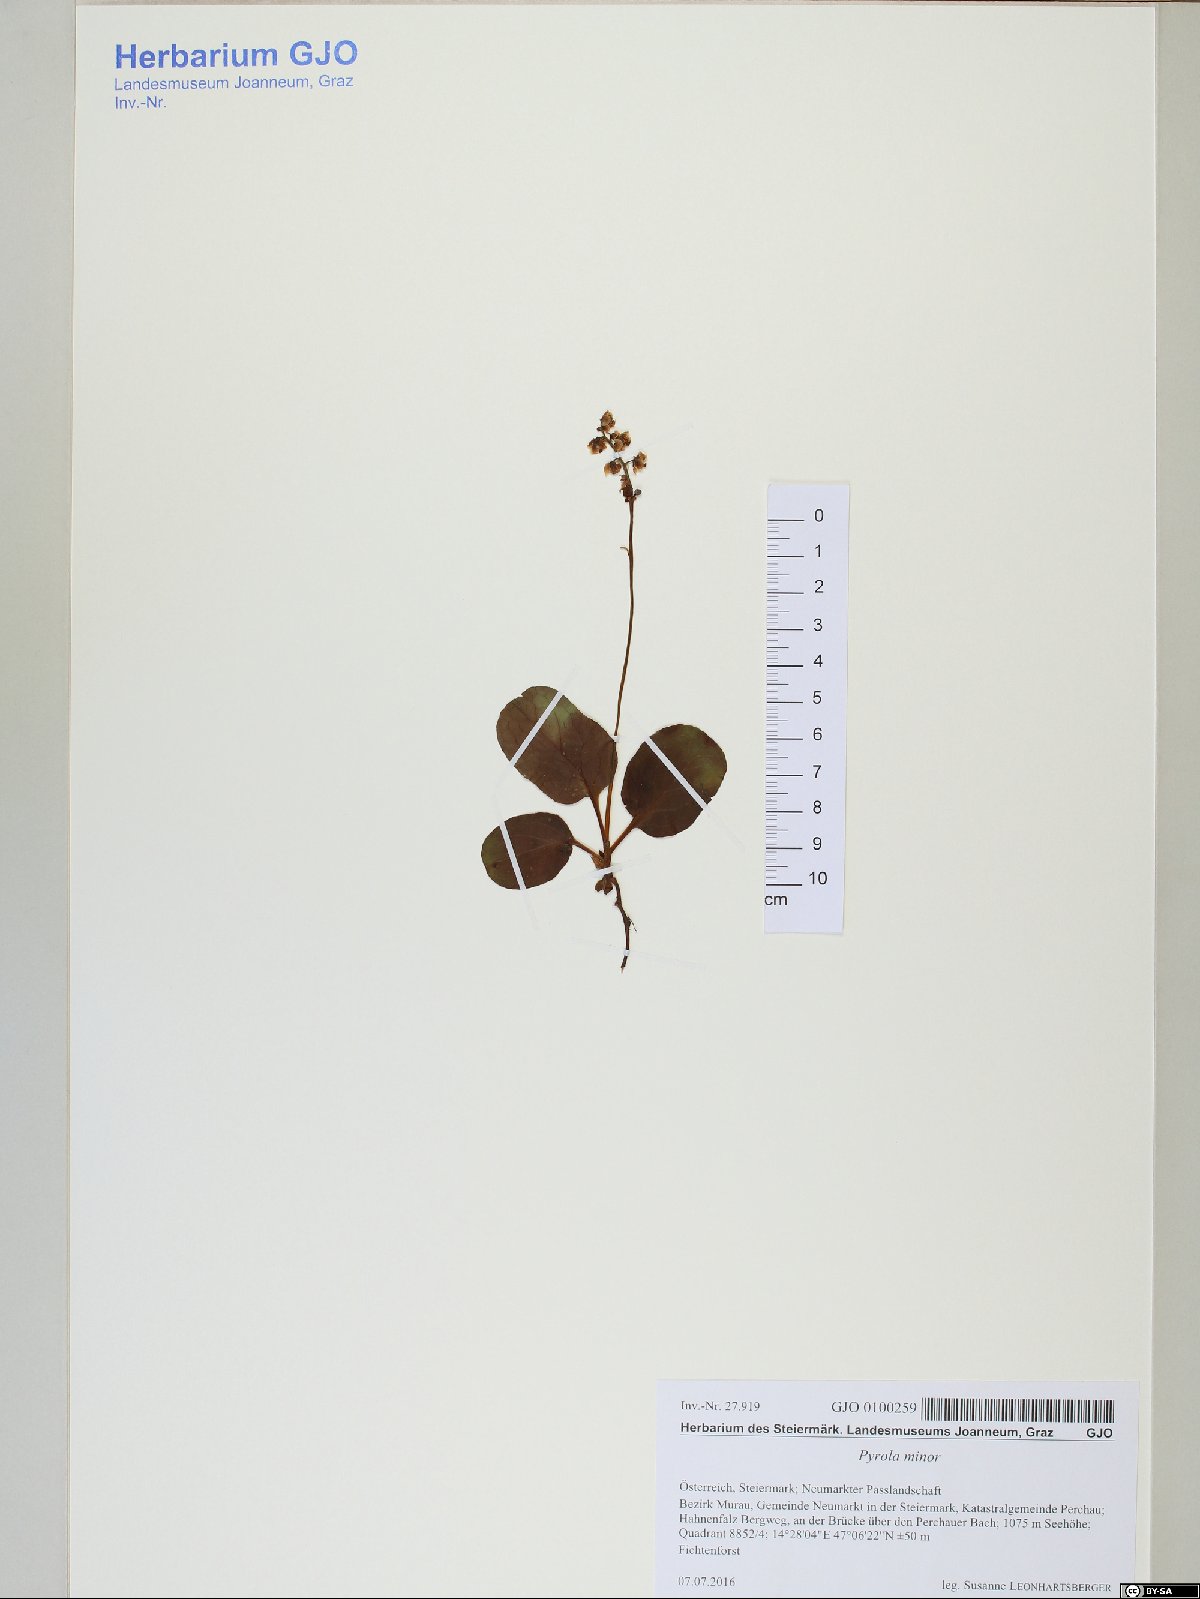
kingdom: Plantae
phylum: Tracheophyta
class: Magnoliopsida
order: Ericales
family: Ericaceae
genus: Pyrola
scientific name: Pyrola minor
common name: Common wintergreen
